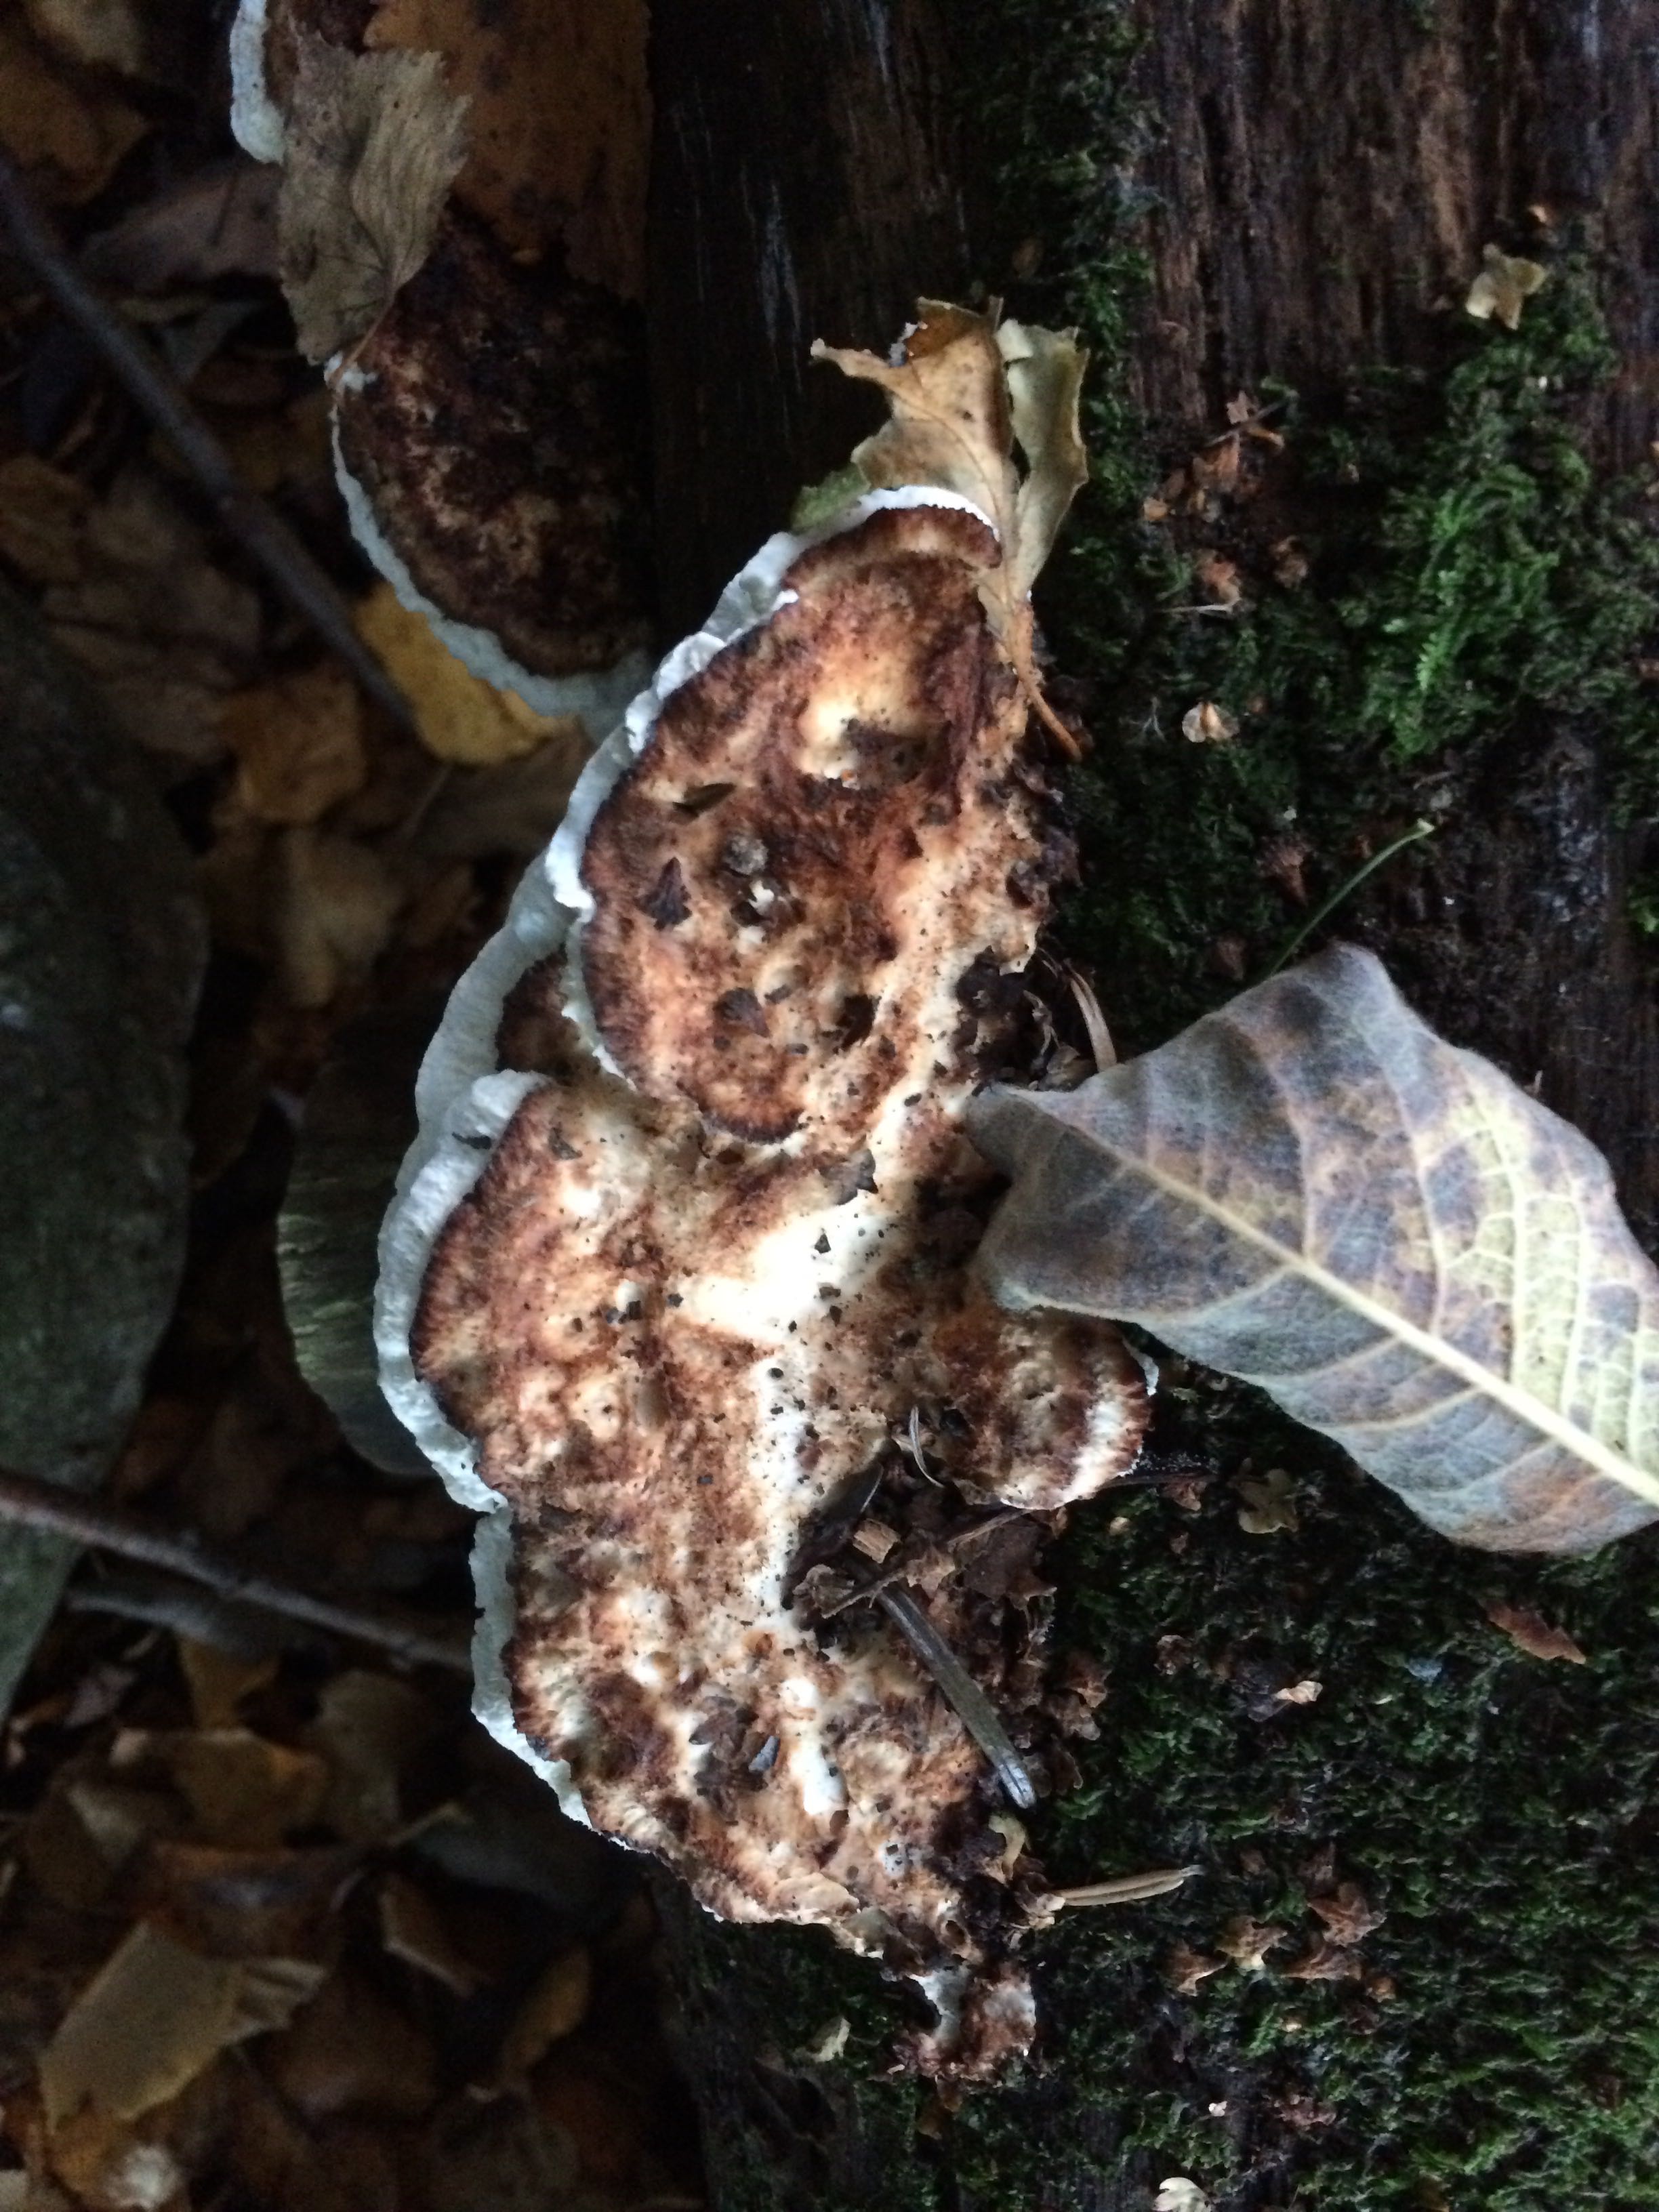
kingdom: Fungi
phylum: Basidiomycota
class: Agaricomycetes
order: Polyporales
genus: Fuscopostia
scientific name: Fuscopostia fragilis
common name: brunende kødporesvamp
